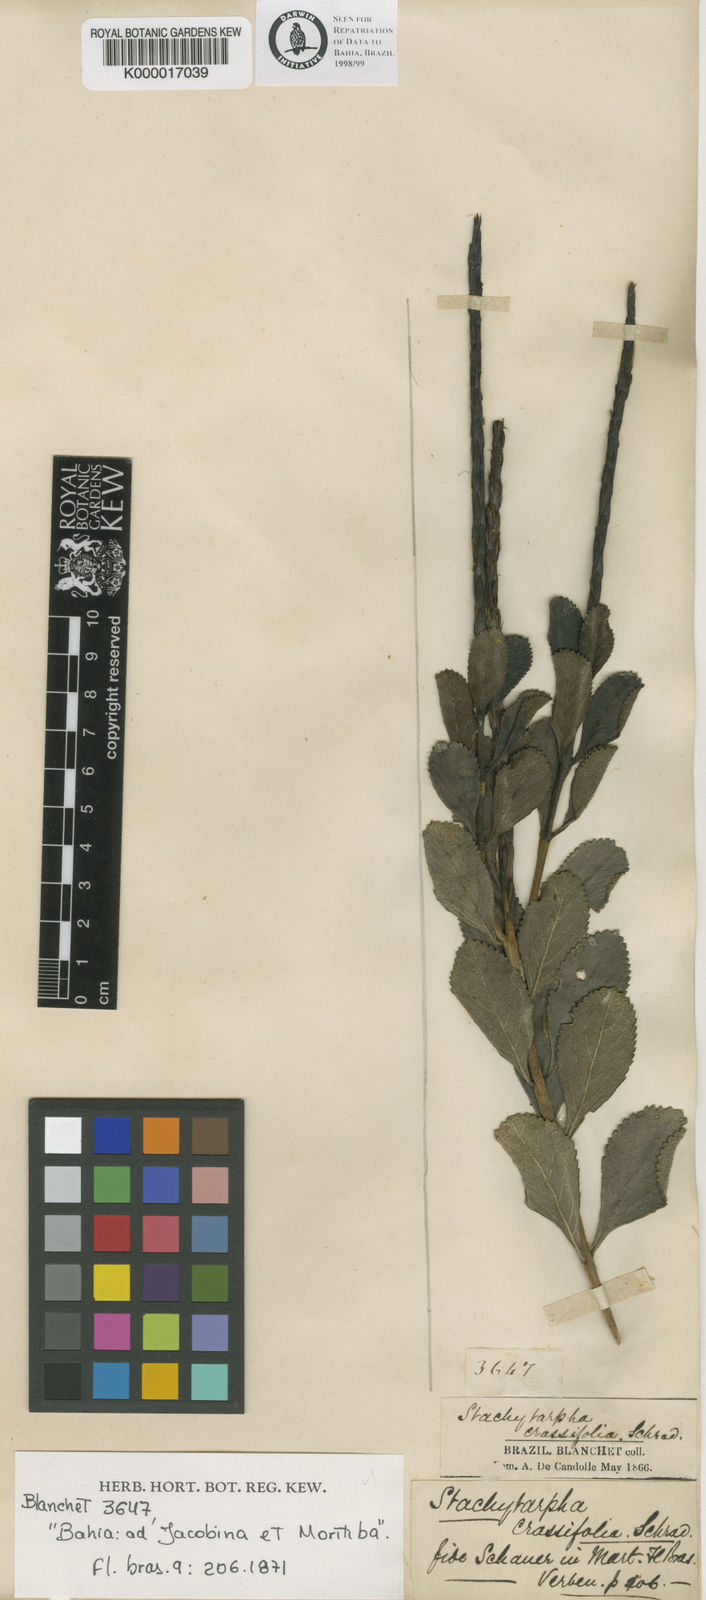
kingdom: Plantae
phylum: Tracheophyta
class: Magnoliopsida
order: Lamiales
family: Verbenaceae
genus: Stachytarpheta
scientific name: Stachytarpheta crassifolia
